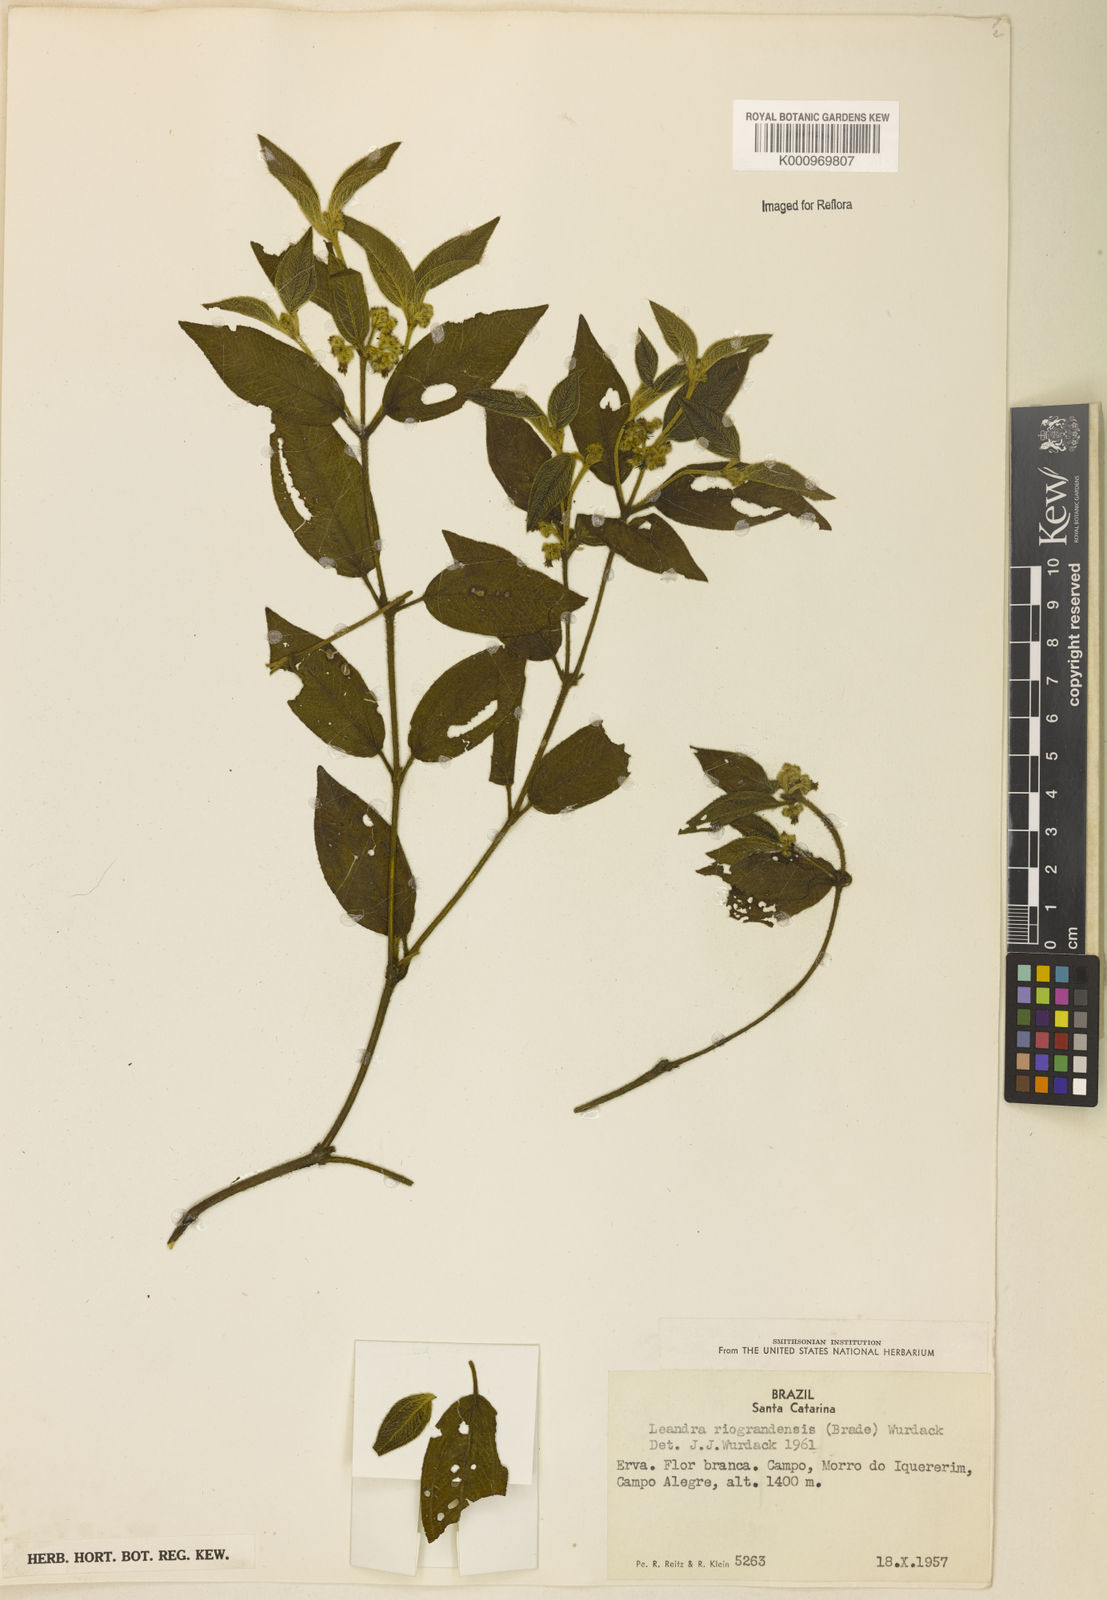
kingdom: Plantae
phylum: Tracheophyta
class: Magnoliopsida
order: Myrtales
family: Melastomataceae
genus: Miconia
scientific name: Miconia riograndensis
